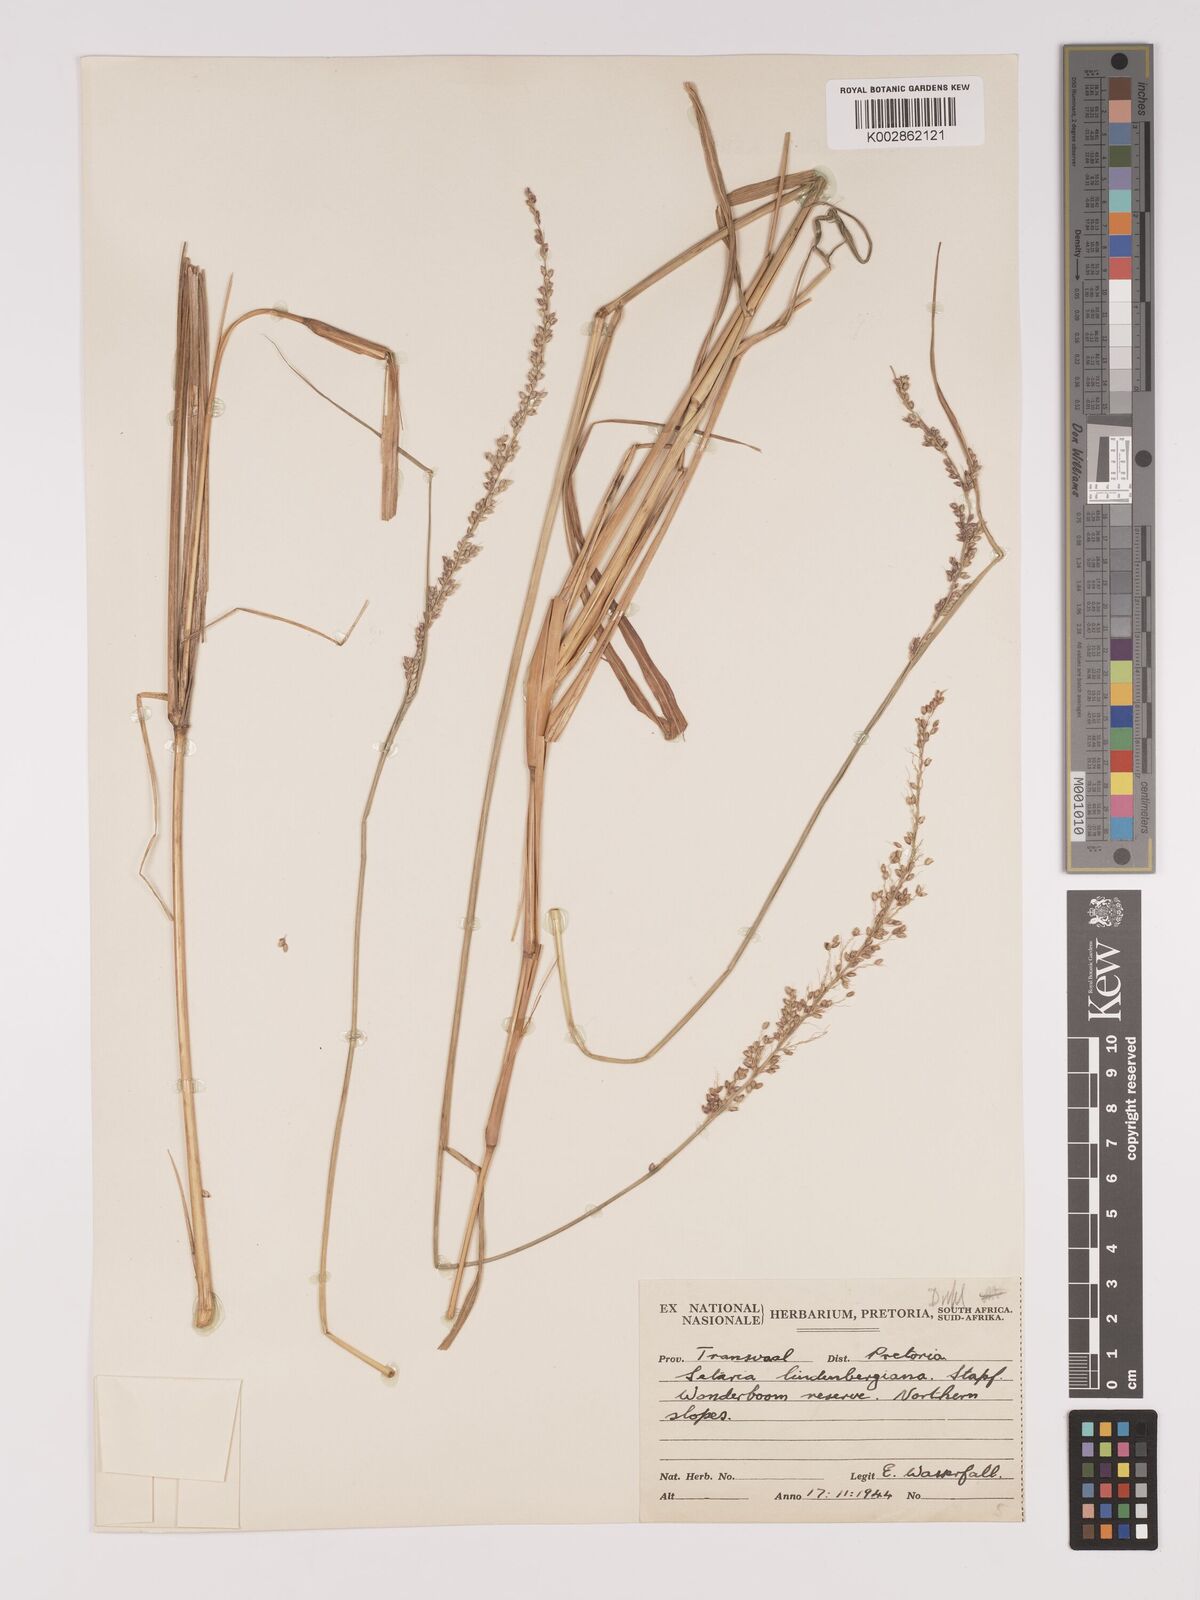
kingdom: Plantae
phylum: Tracheophyta
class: Liliopsida
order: Poales
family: Poaceae
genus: Setaria
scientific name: Setaria lindenbergiana
